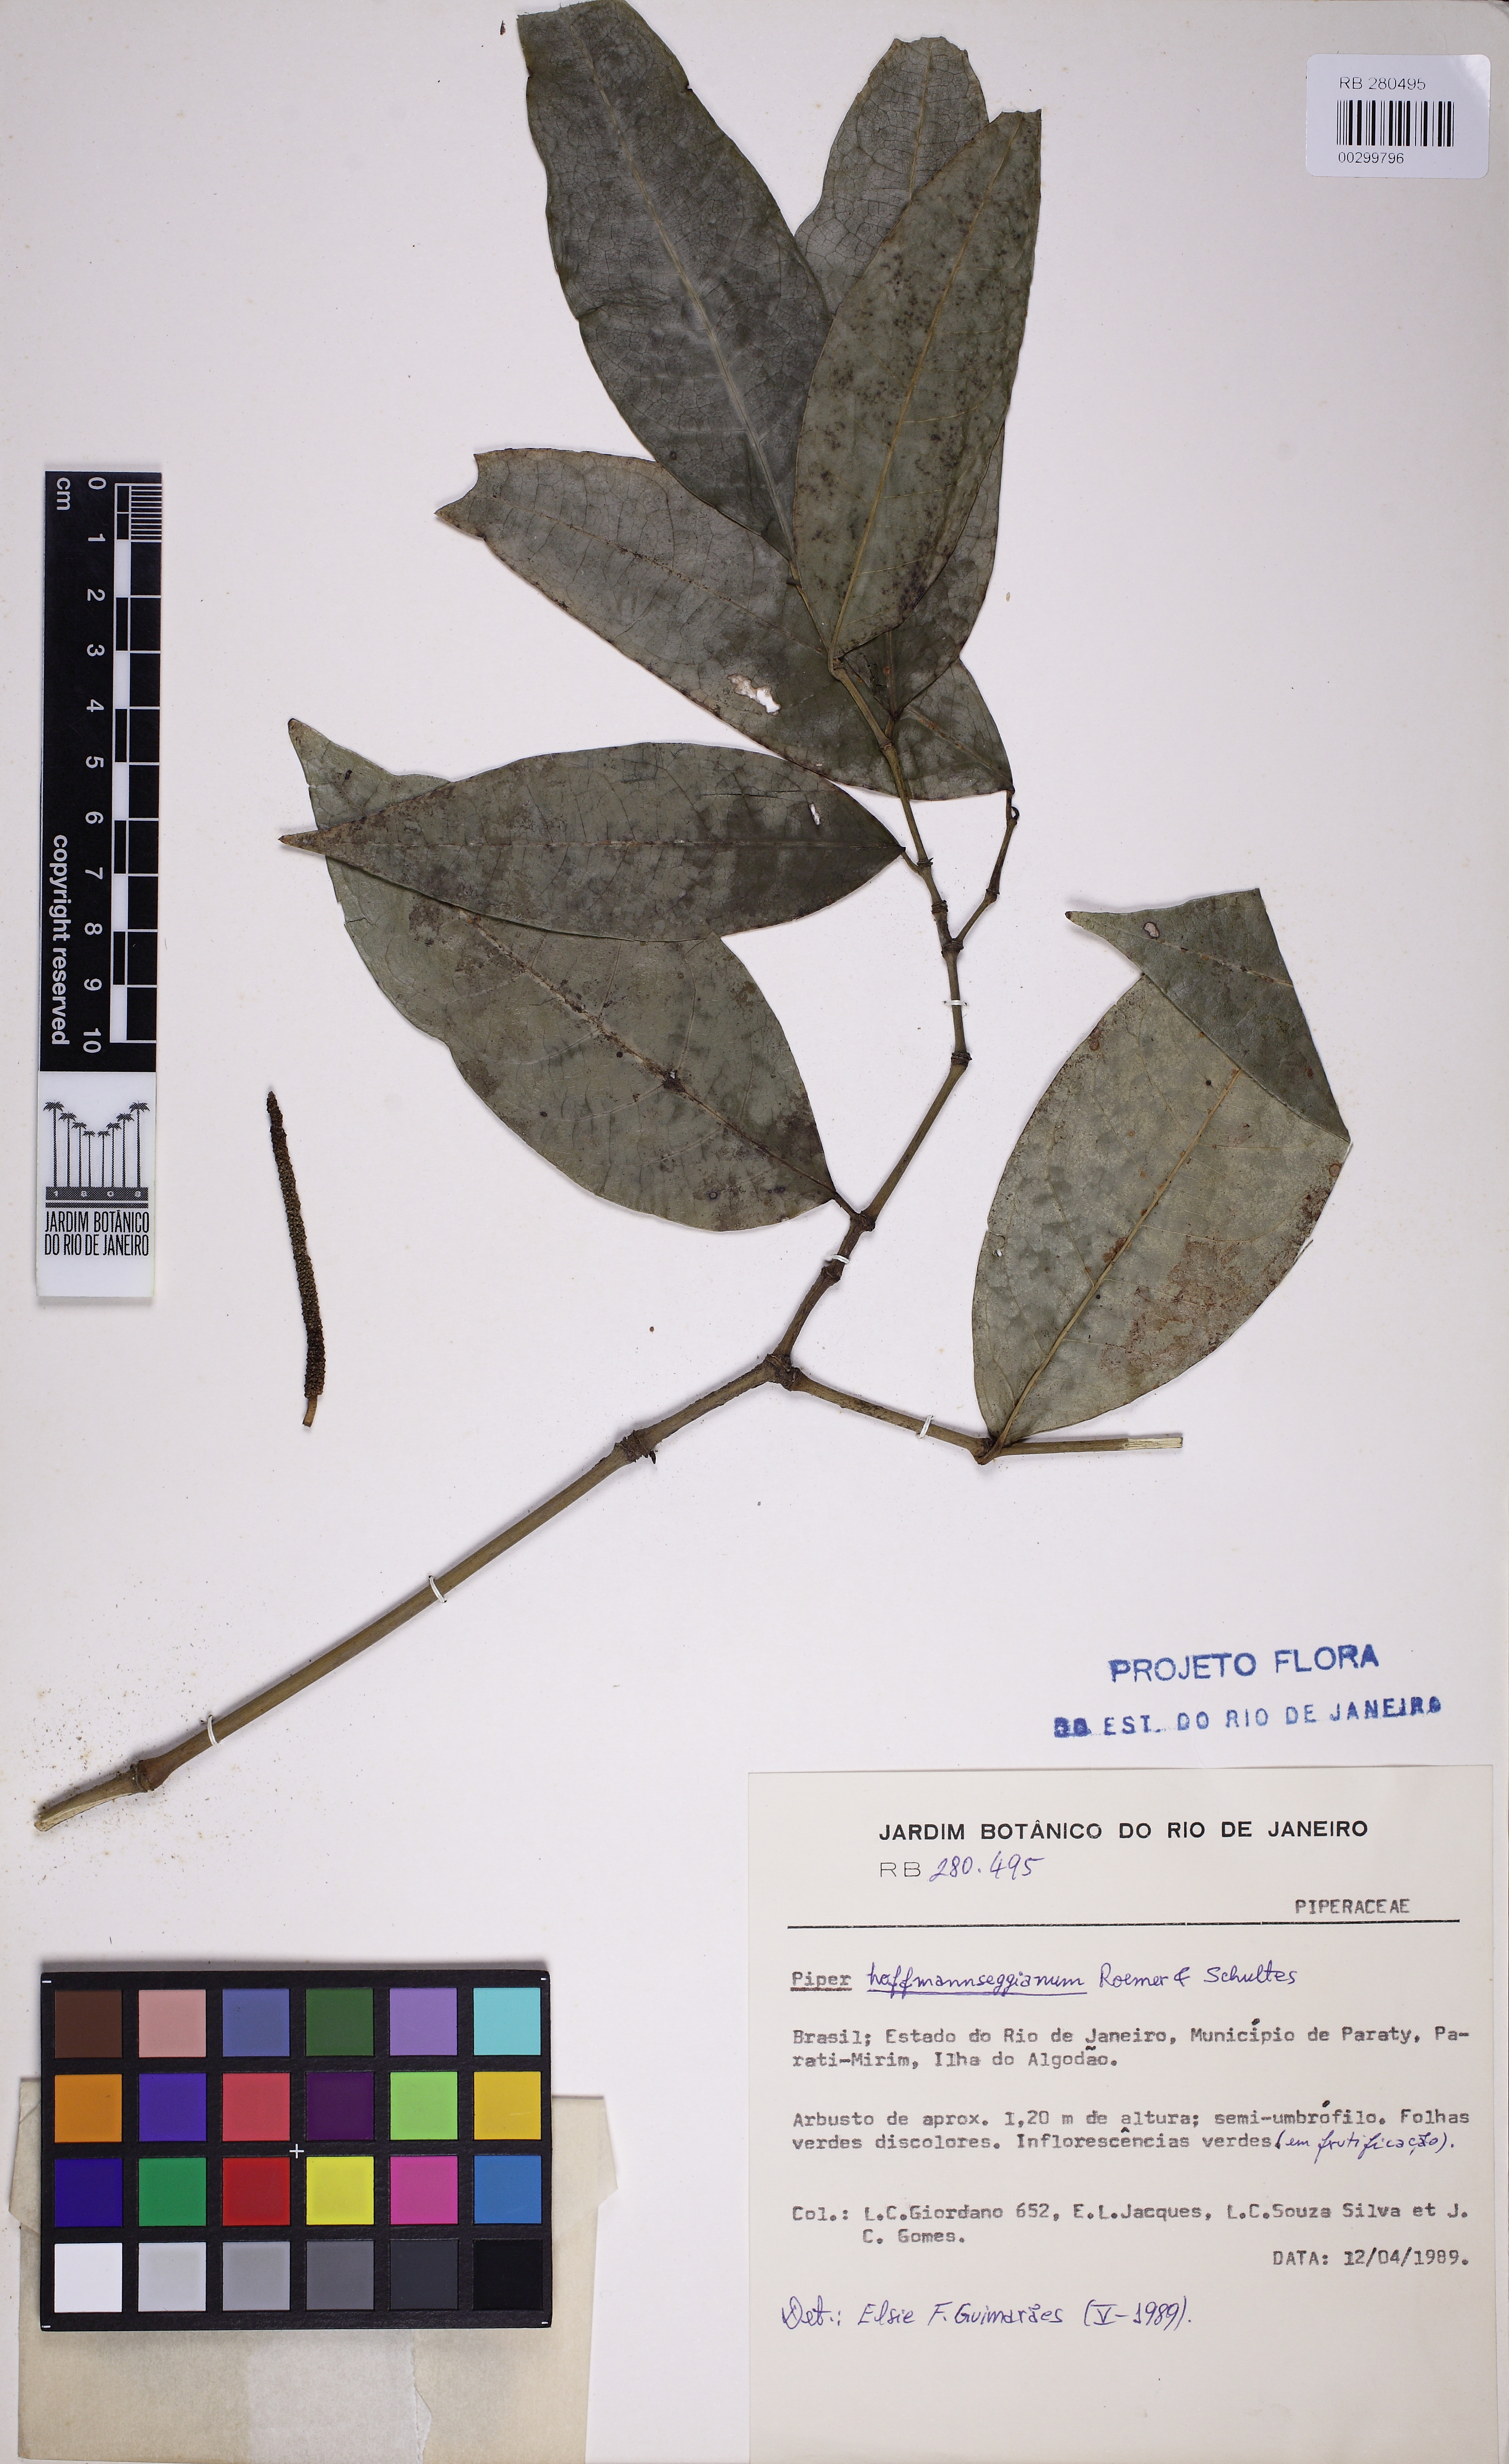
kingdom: Plantae
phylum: Tracheophyta
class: Magnoliopsida
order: Piperales
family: Piperaceae
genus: Piper
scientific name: Piper hoffmannseggianum
